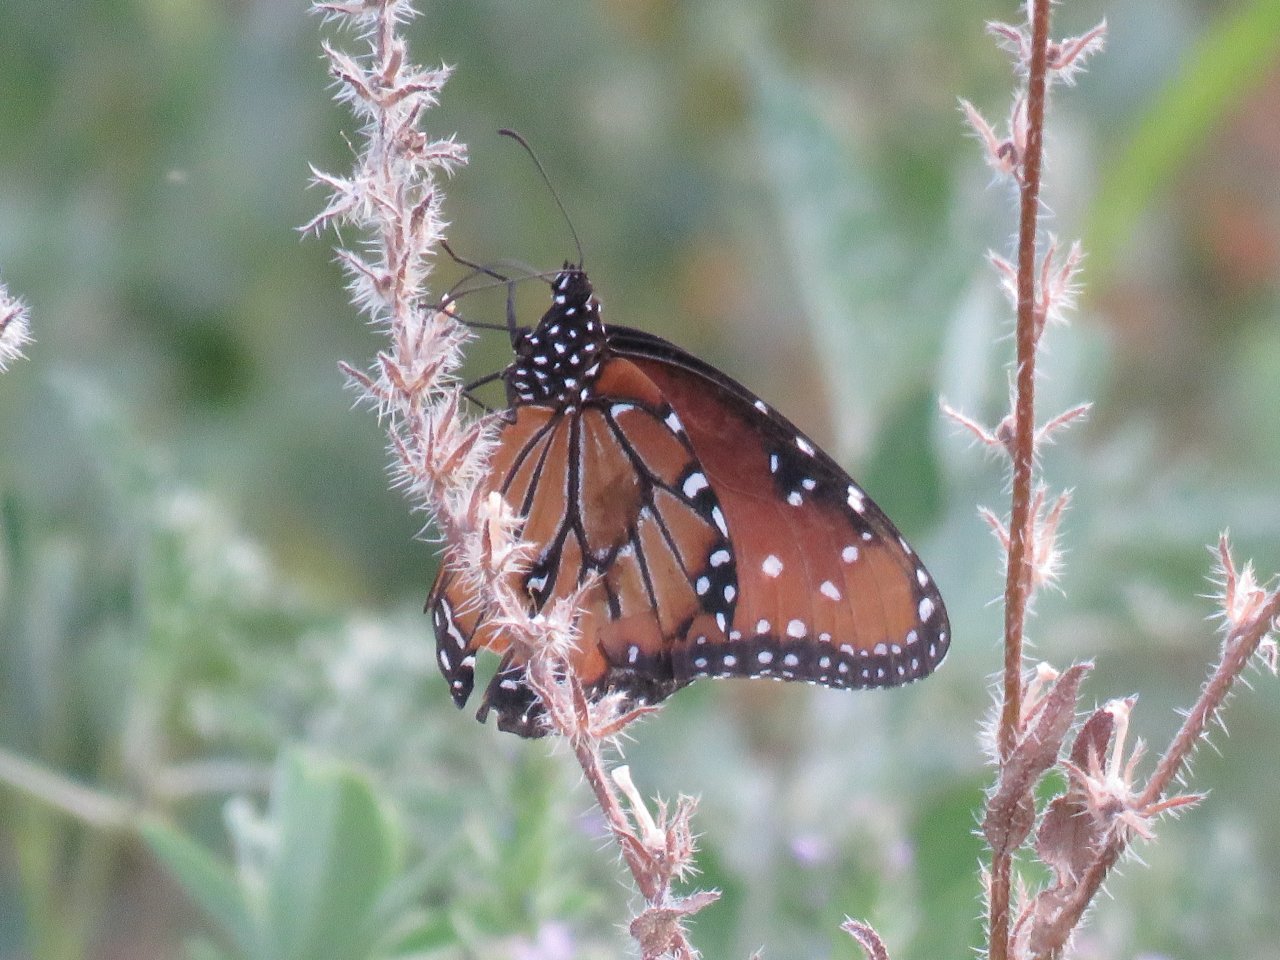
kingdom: Animalia
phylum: Arthropoda
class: Insecta
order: Lepidoptera
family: Nymphalidae
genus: Danaus
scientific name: Danaus gilippus
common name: Queen
